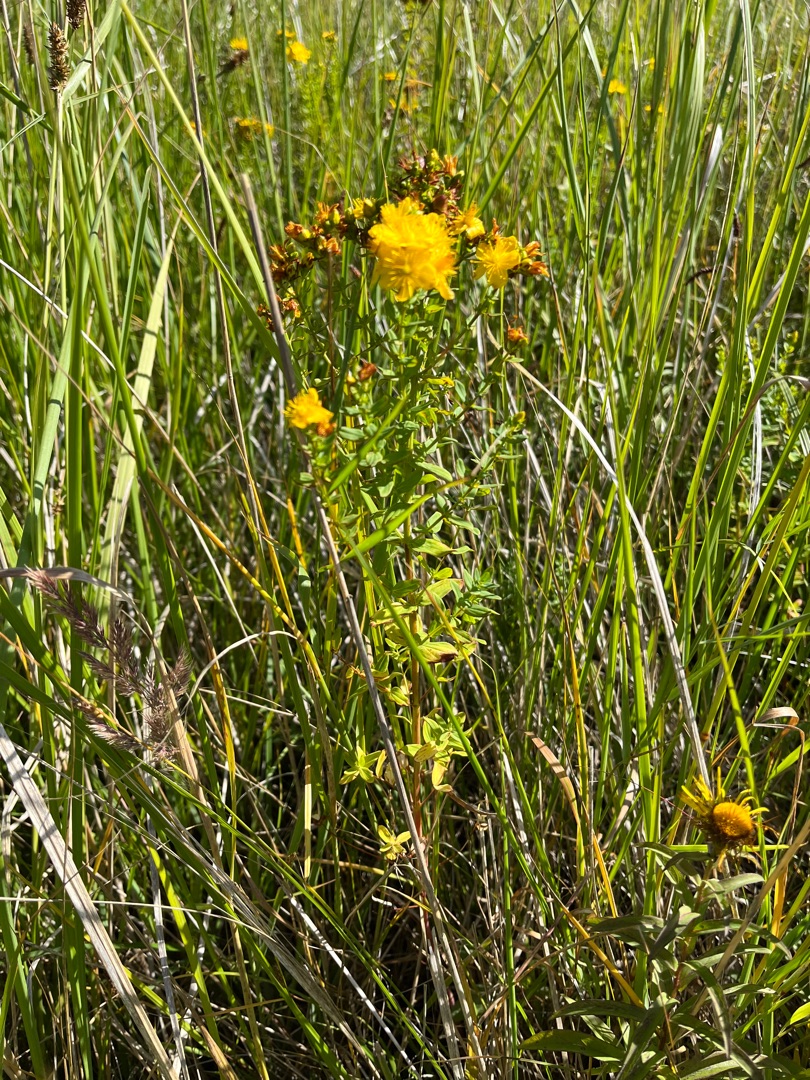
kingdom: Plantae
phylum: Tracheophyta
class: Magnoliopsida
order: Malpighiales
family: Hypericaceae
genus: Hypericum
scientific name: Hypericum perforatum
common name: Prikbladet perikon
